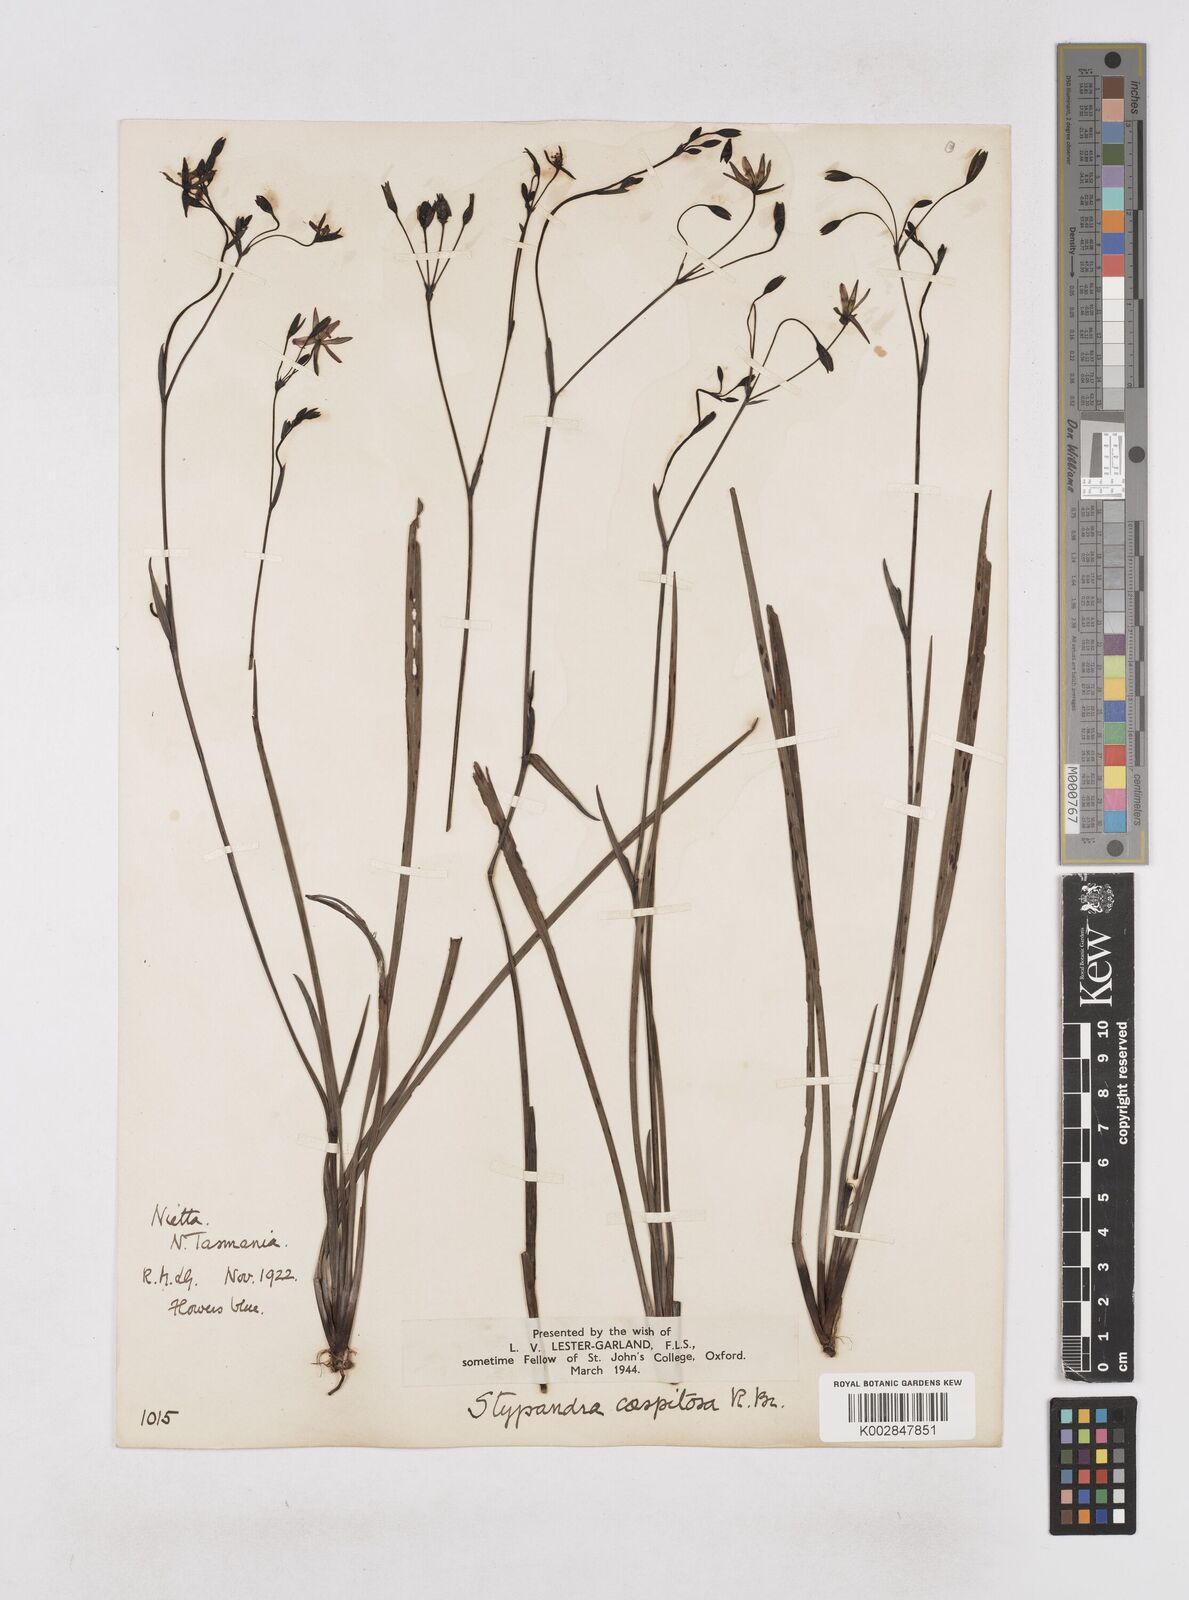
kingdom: Plantae
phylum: Tracheophyta
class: Liliopsida
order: Asparagales
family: Asphodelaceae
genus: Thelionema
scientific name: Thelionema caespitosum
